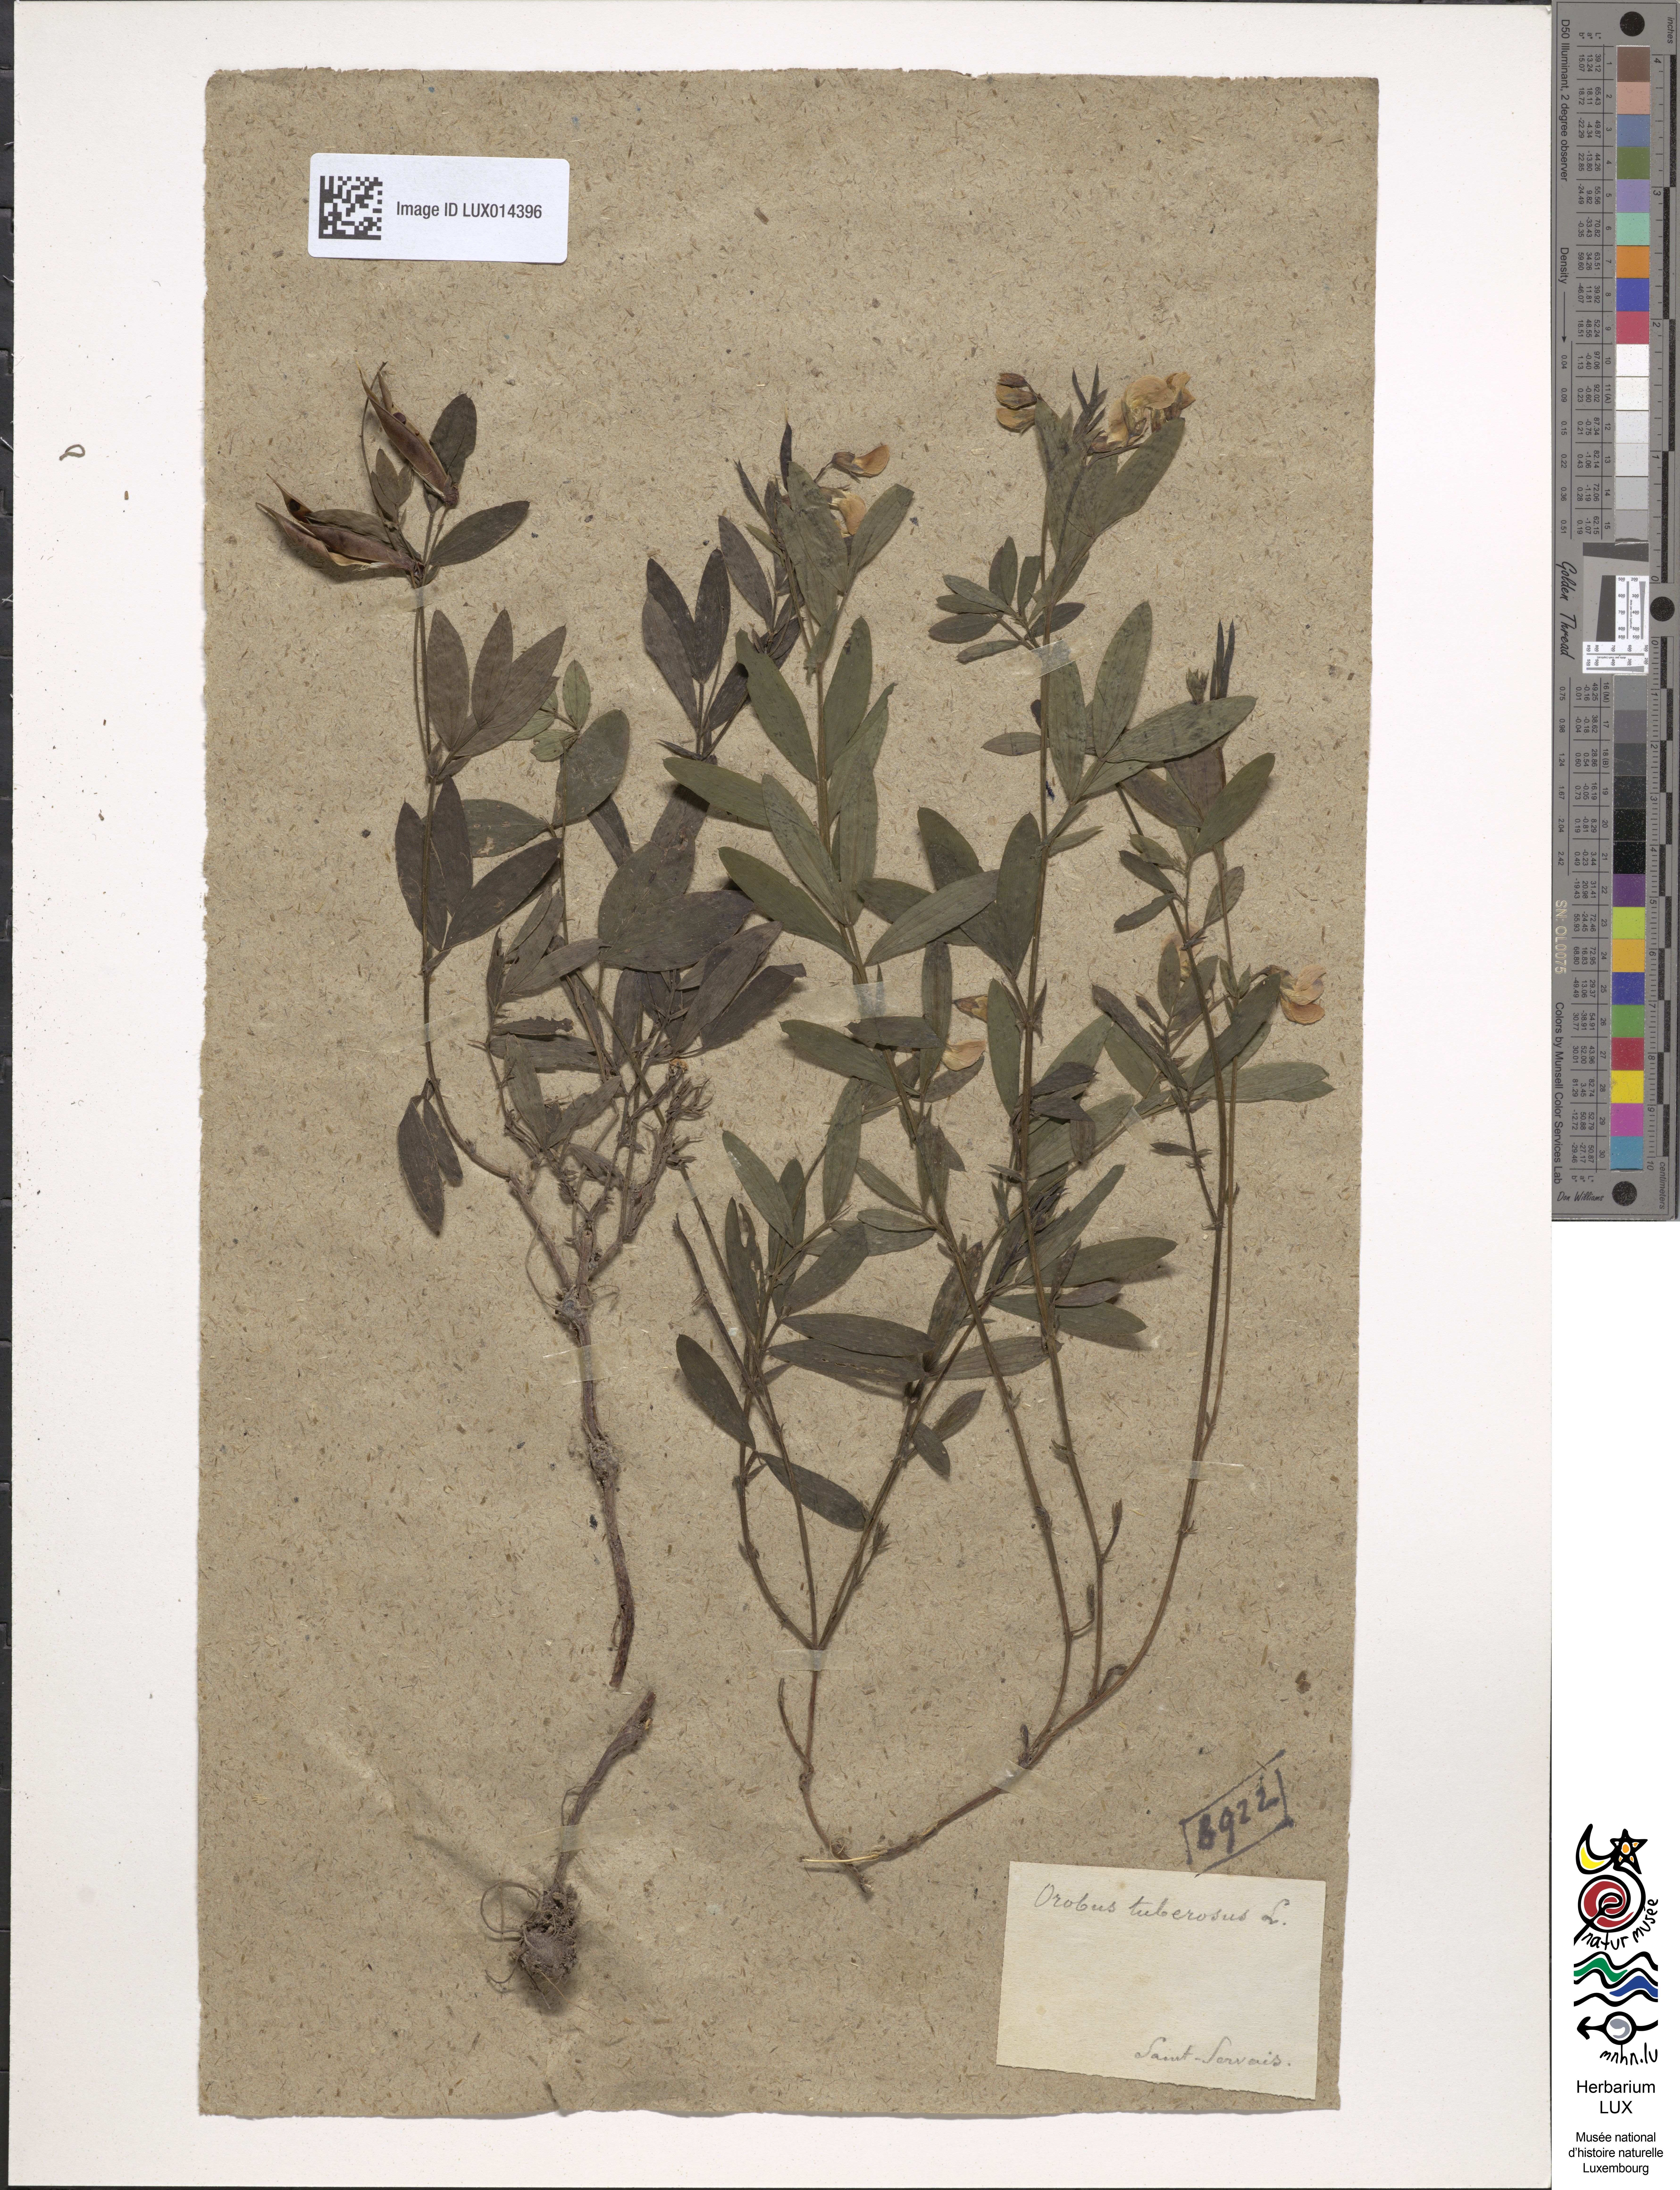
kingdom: Plantae
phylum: Tracheophyta
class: Magnoliopsida
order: Fabales
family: Fabaceae
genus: Lathyrus
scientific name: Lathyrus linifolius
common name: Bitter-vetch
